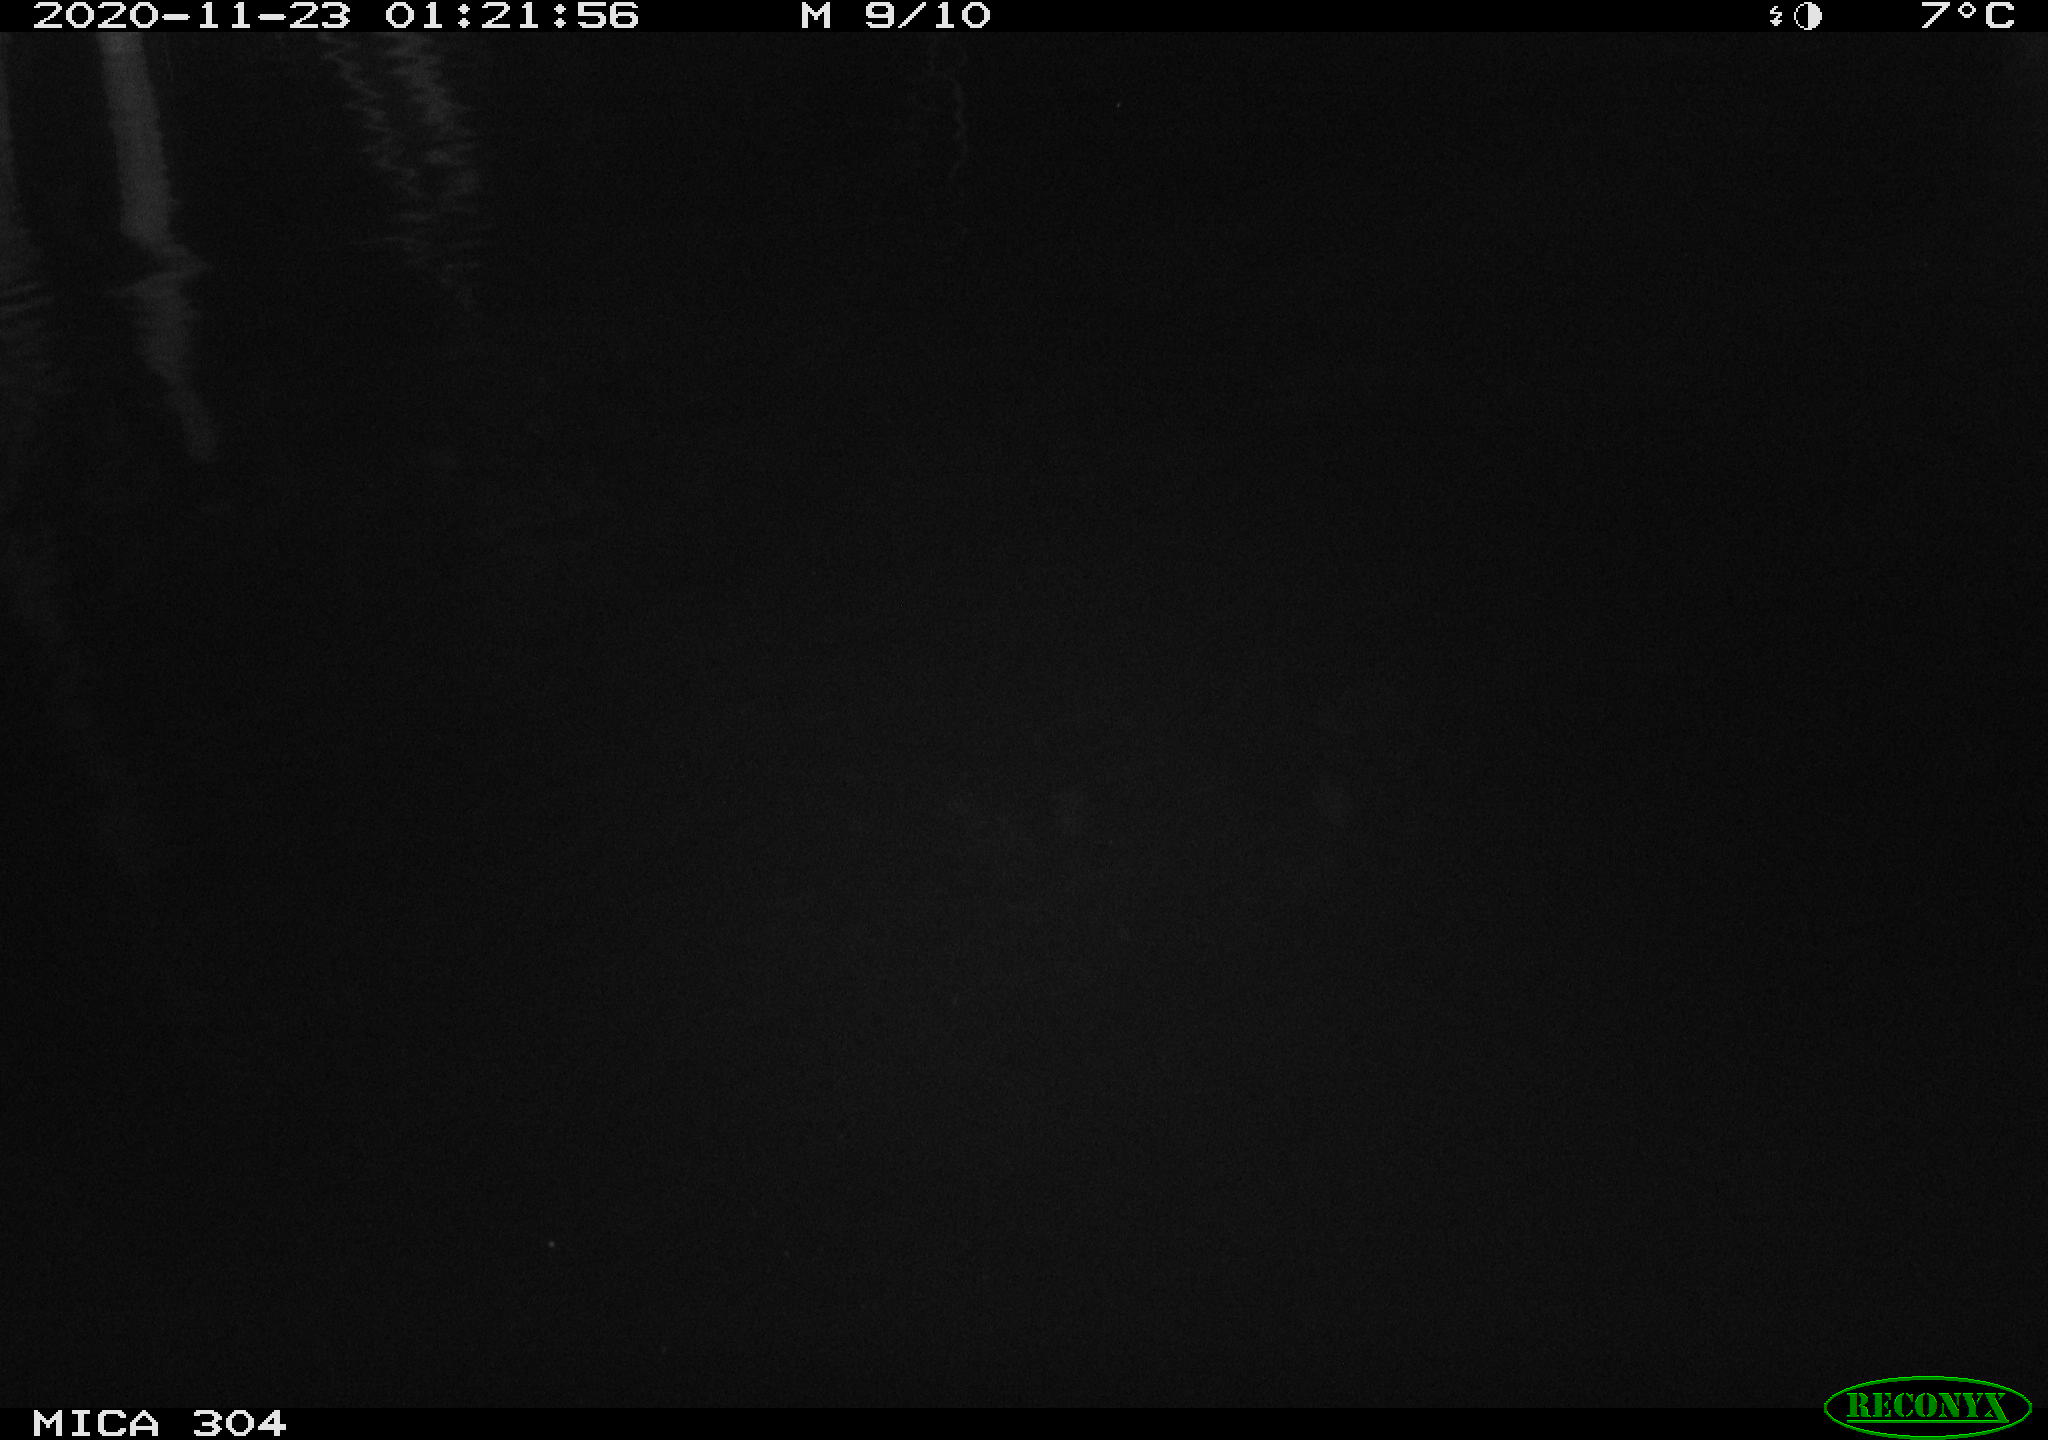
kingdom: Animalia
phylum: Chordata
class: Mammalia
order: Rodentia
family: Cricetidae
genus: Ondatra
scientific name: Ondatra zibethicus
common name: Muskrat
